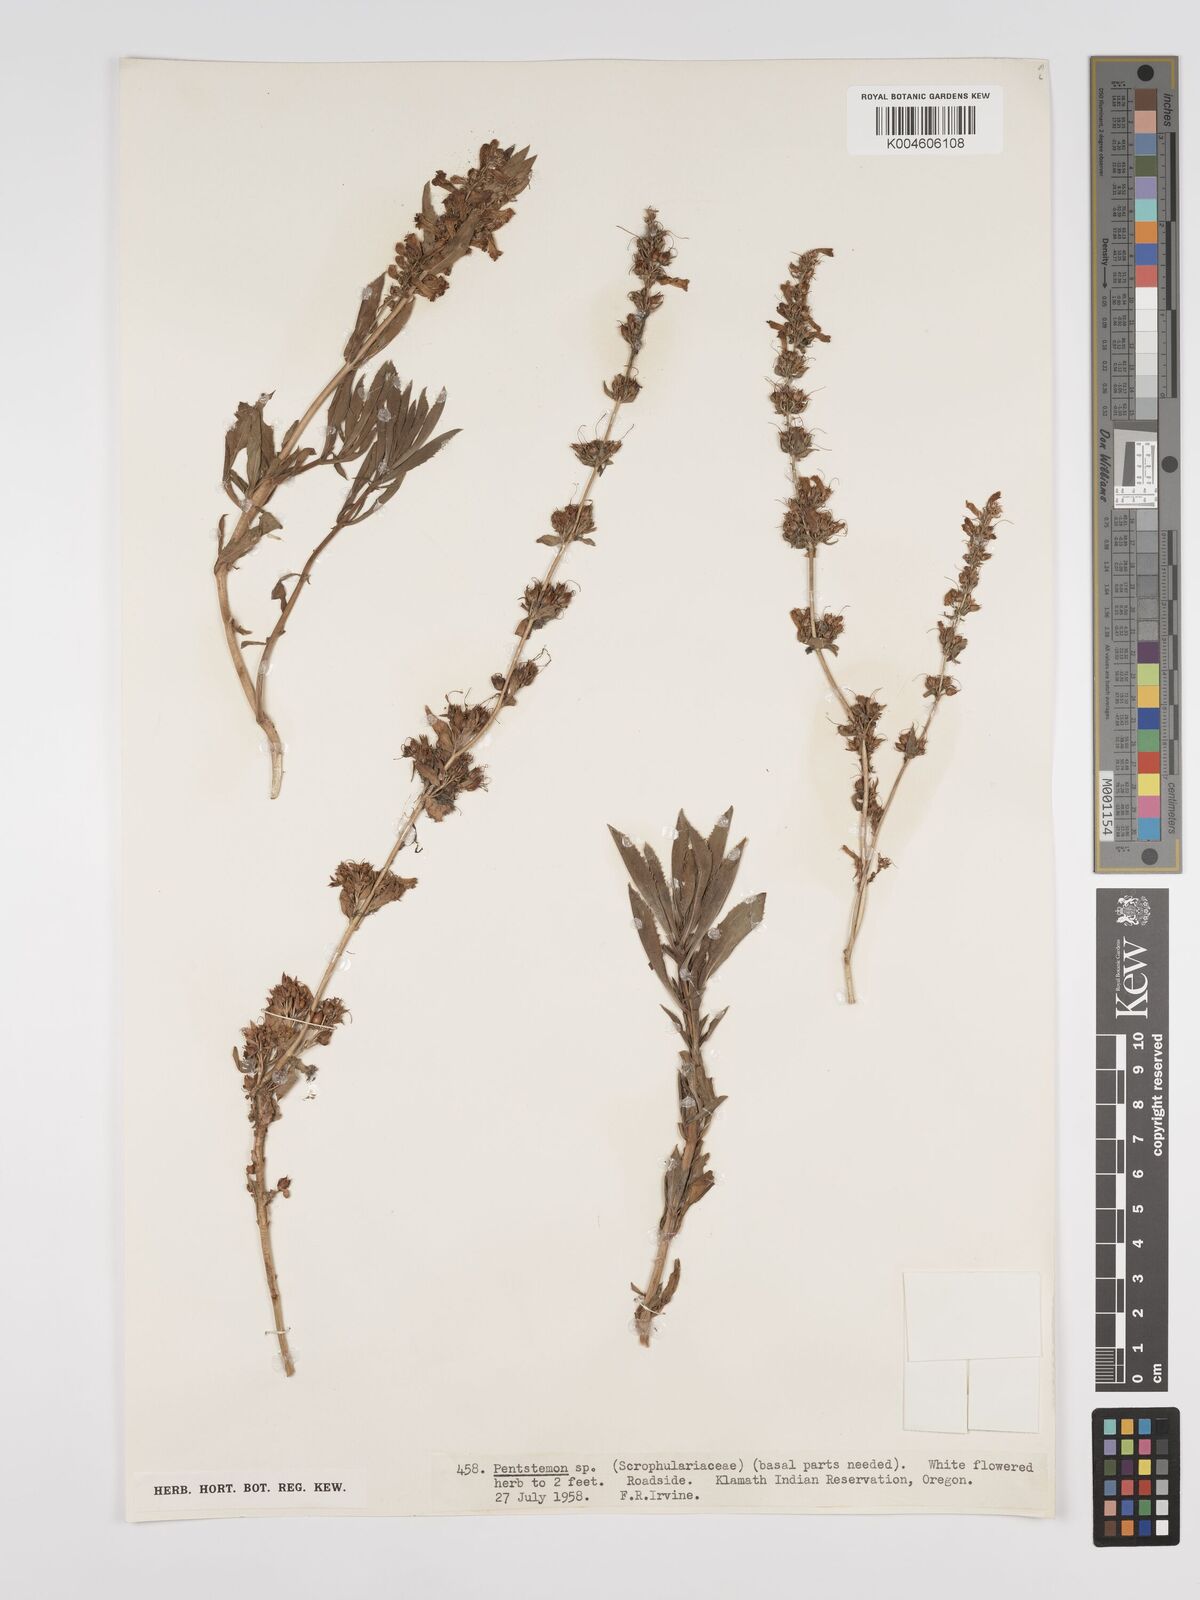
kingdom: Plantae
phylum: Tracheophyta
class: Magnoliopsida
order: Lamiales
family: Plantaginaceae
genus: Penstemon
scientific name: Penstemon
